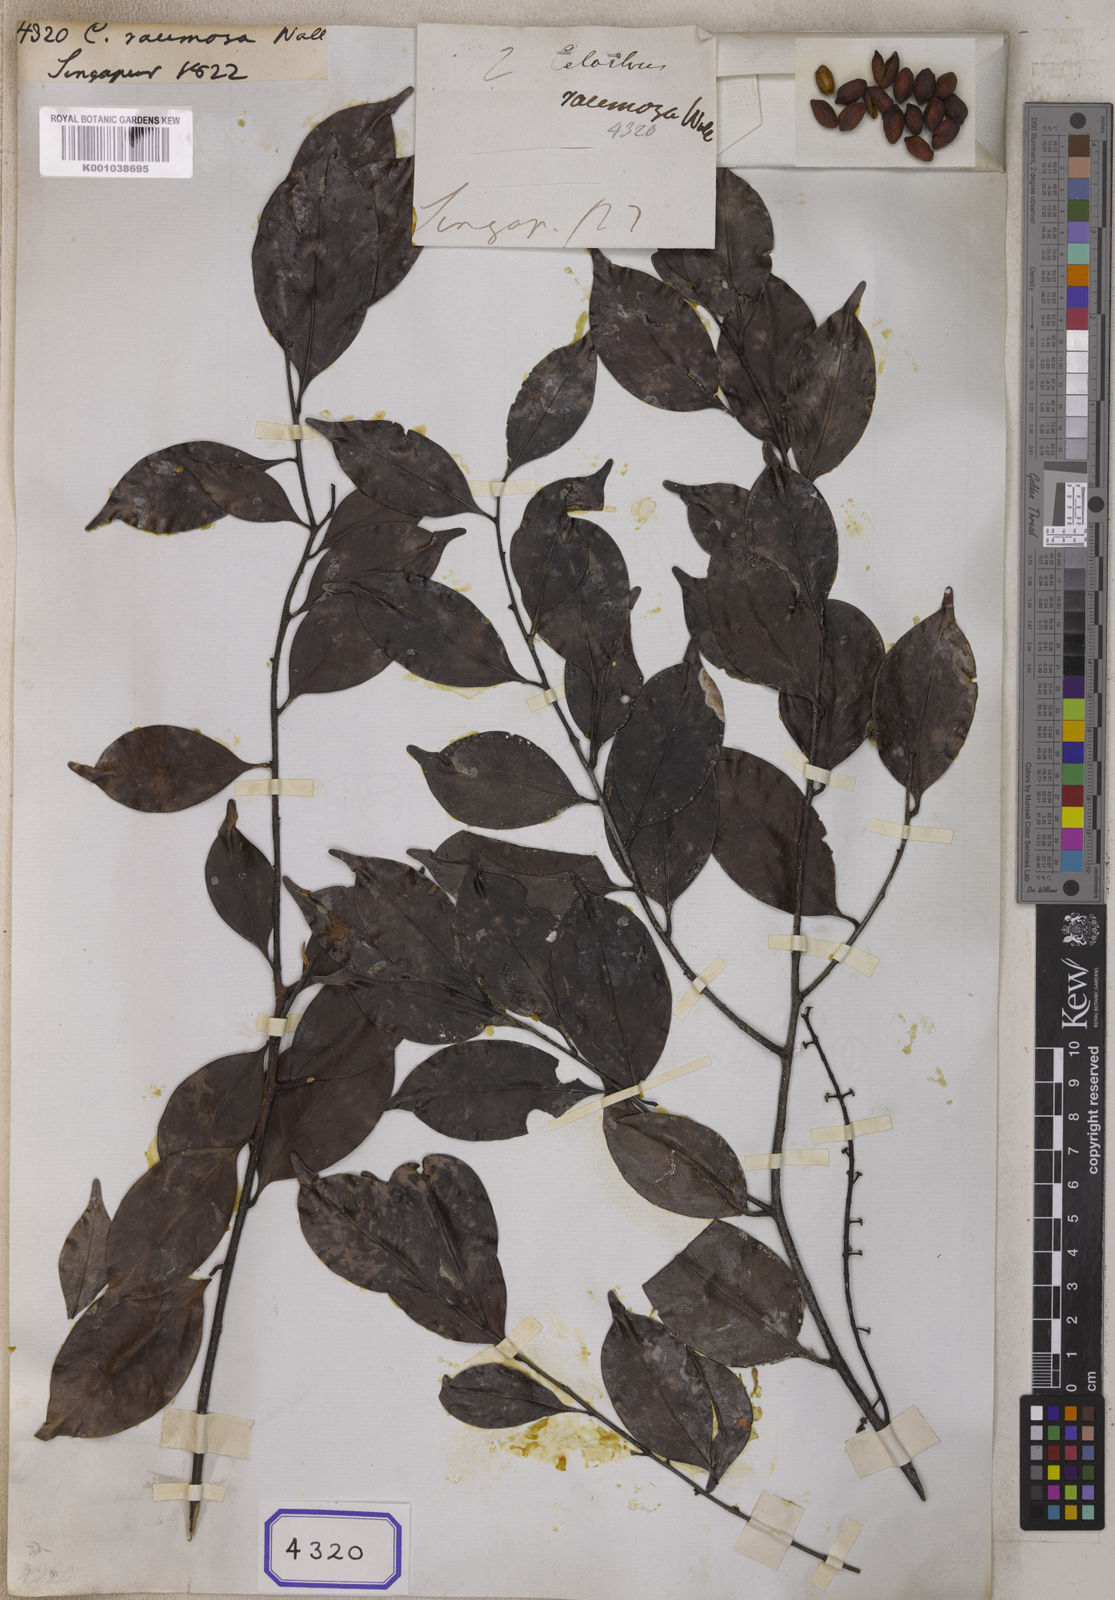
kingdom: Plantae
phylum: Tracheophyta
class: Magnoliopsida
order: Celastrales
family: Celastraceae
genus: Celastrus
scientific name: Celastrus
